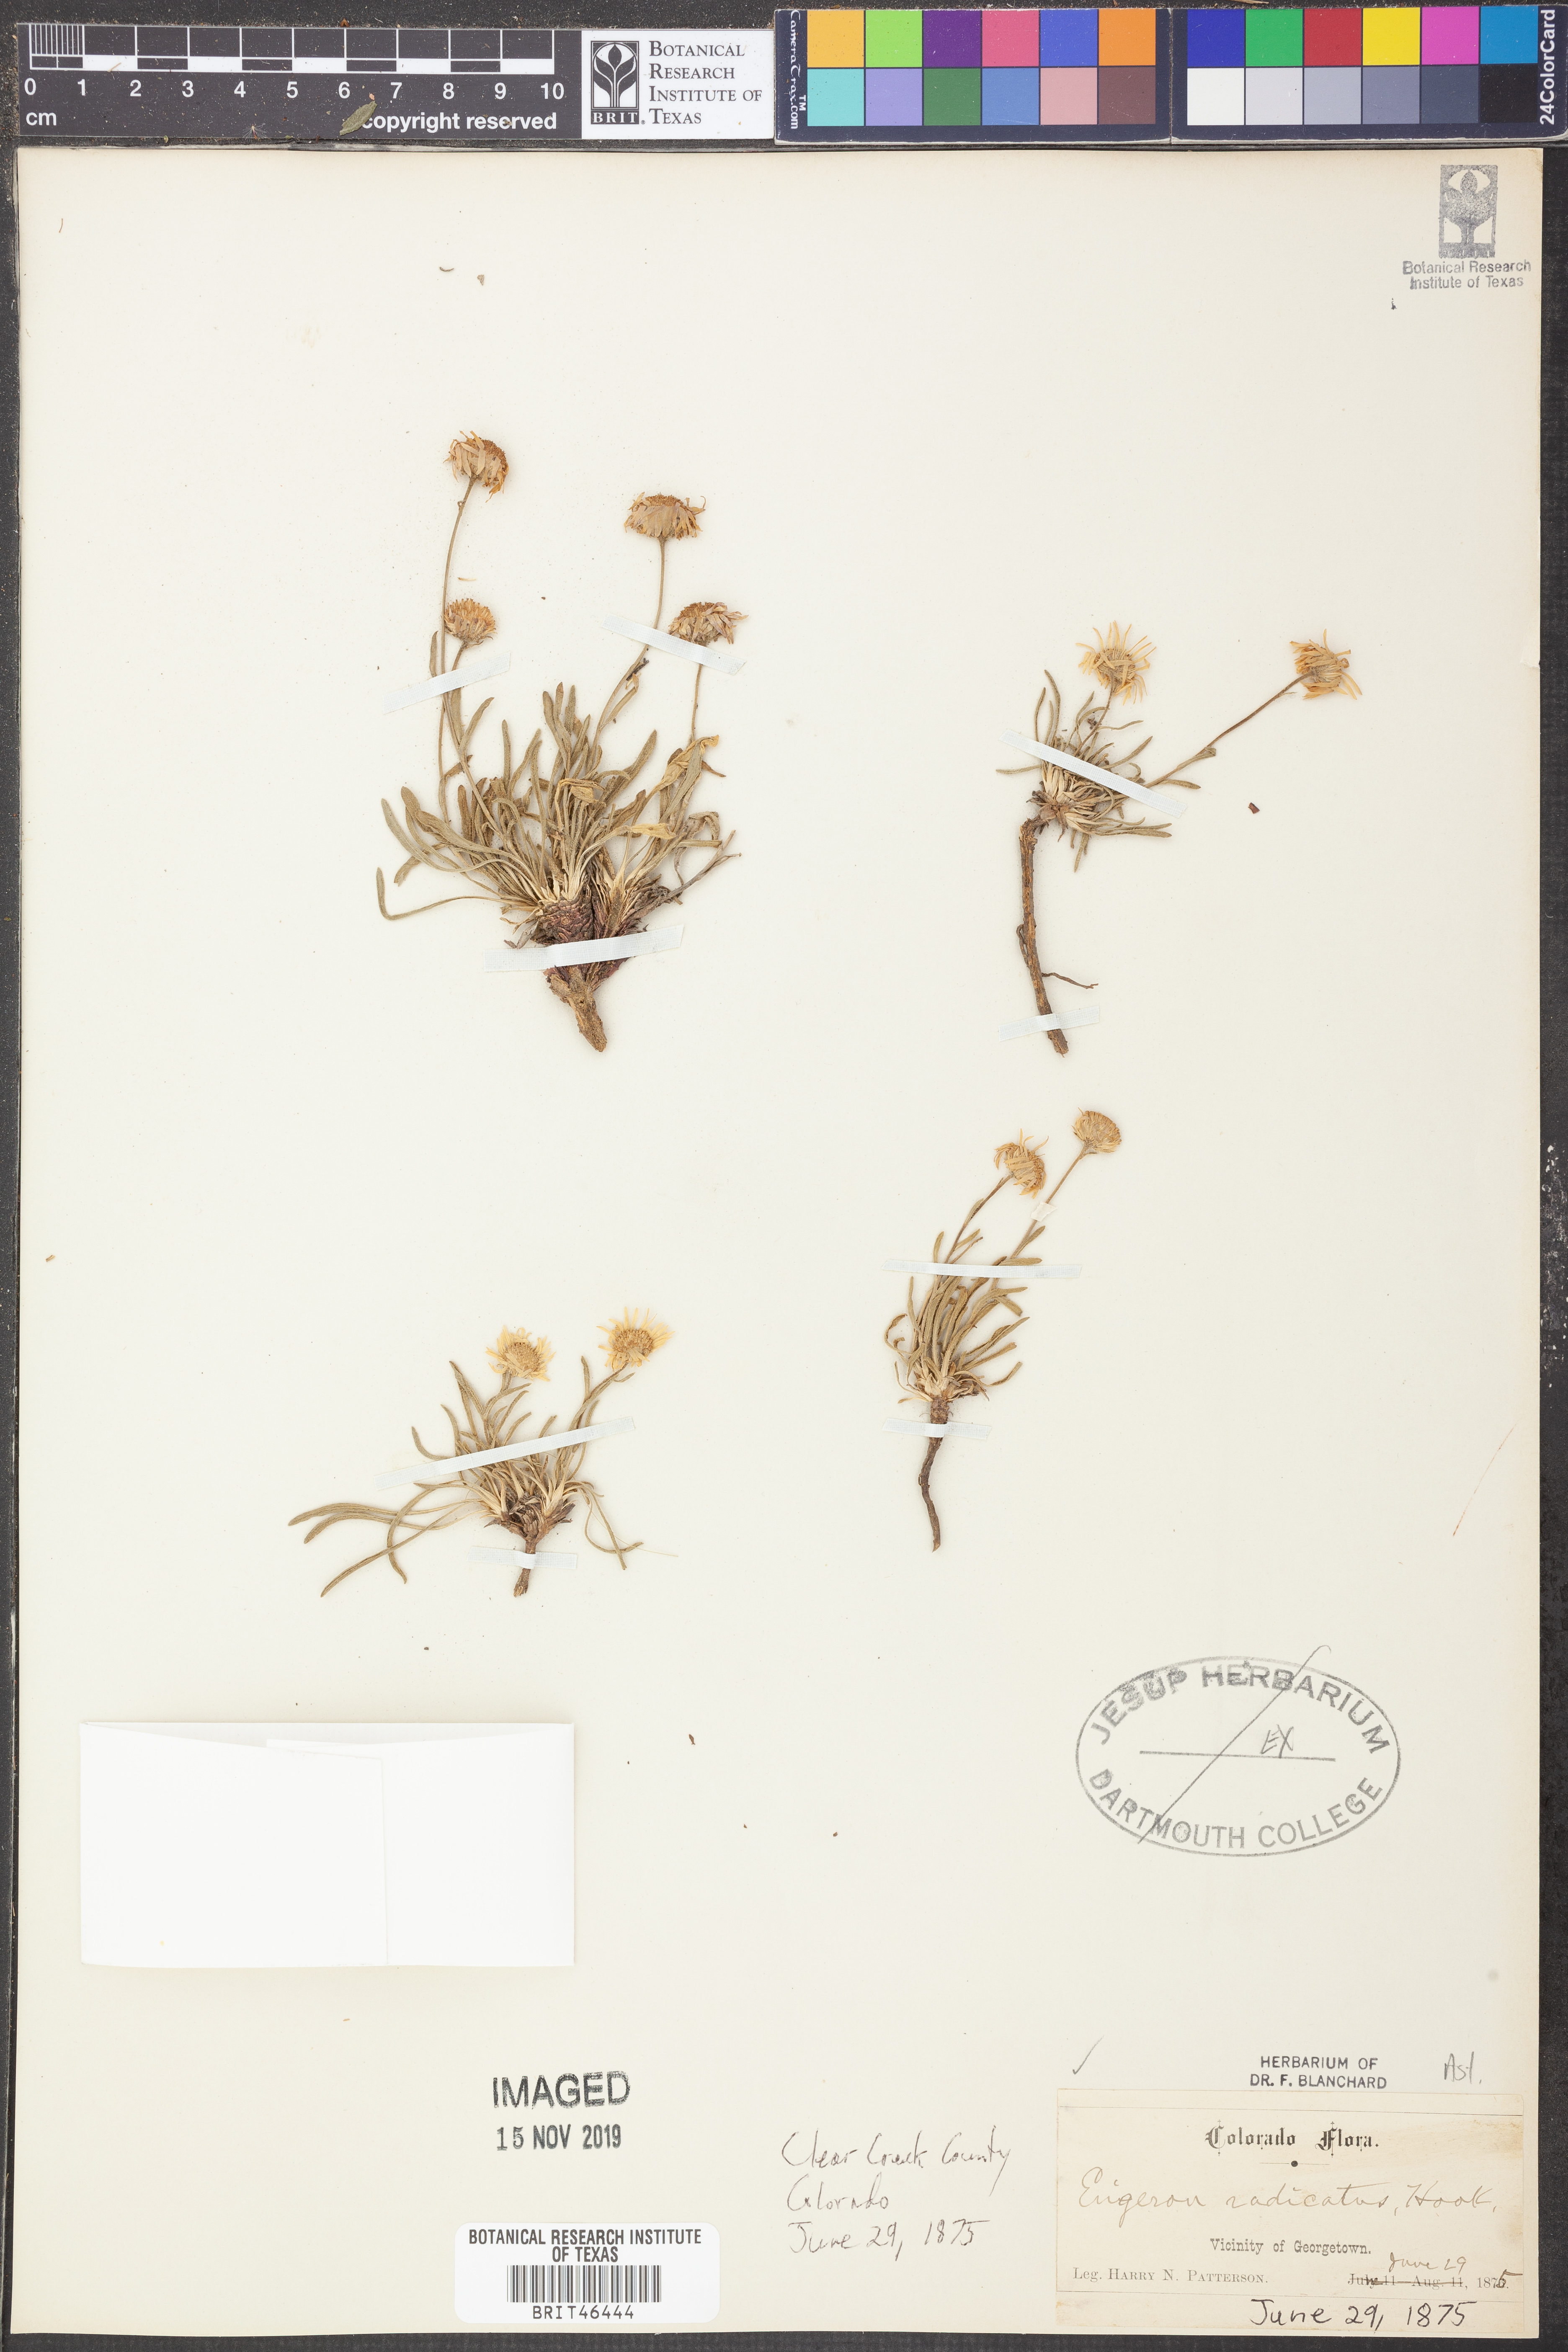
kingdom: Plantae
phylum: Tracheophyta
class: Magnoliopsida
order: Asterales
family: Asteraceae
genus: Erigeron
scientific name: Erigeron radicatus
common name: Dwarf fleabane
